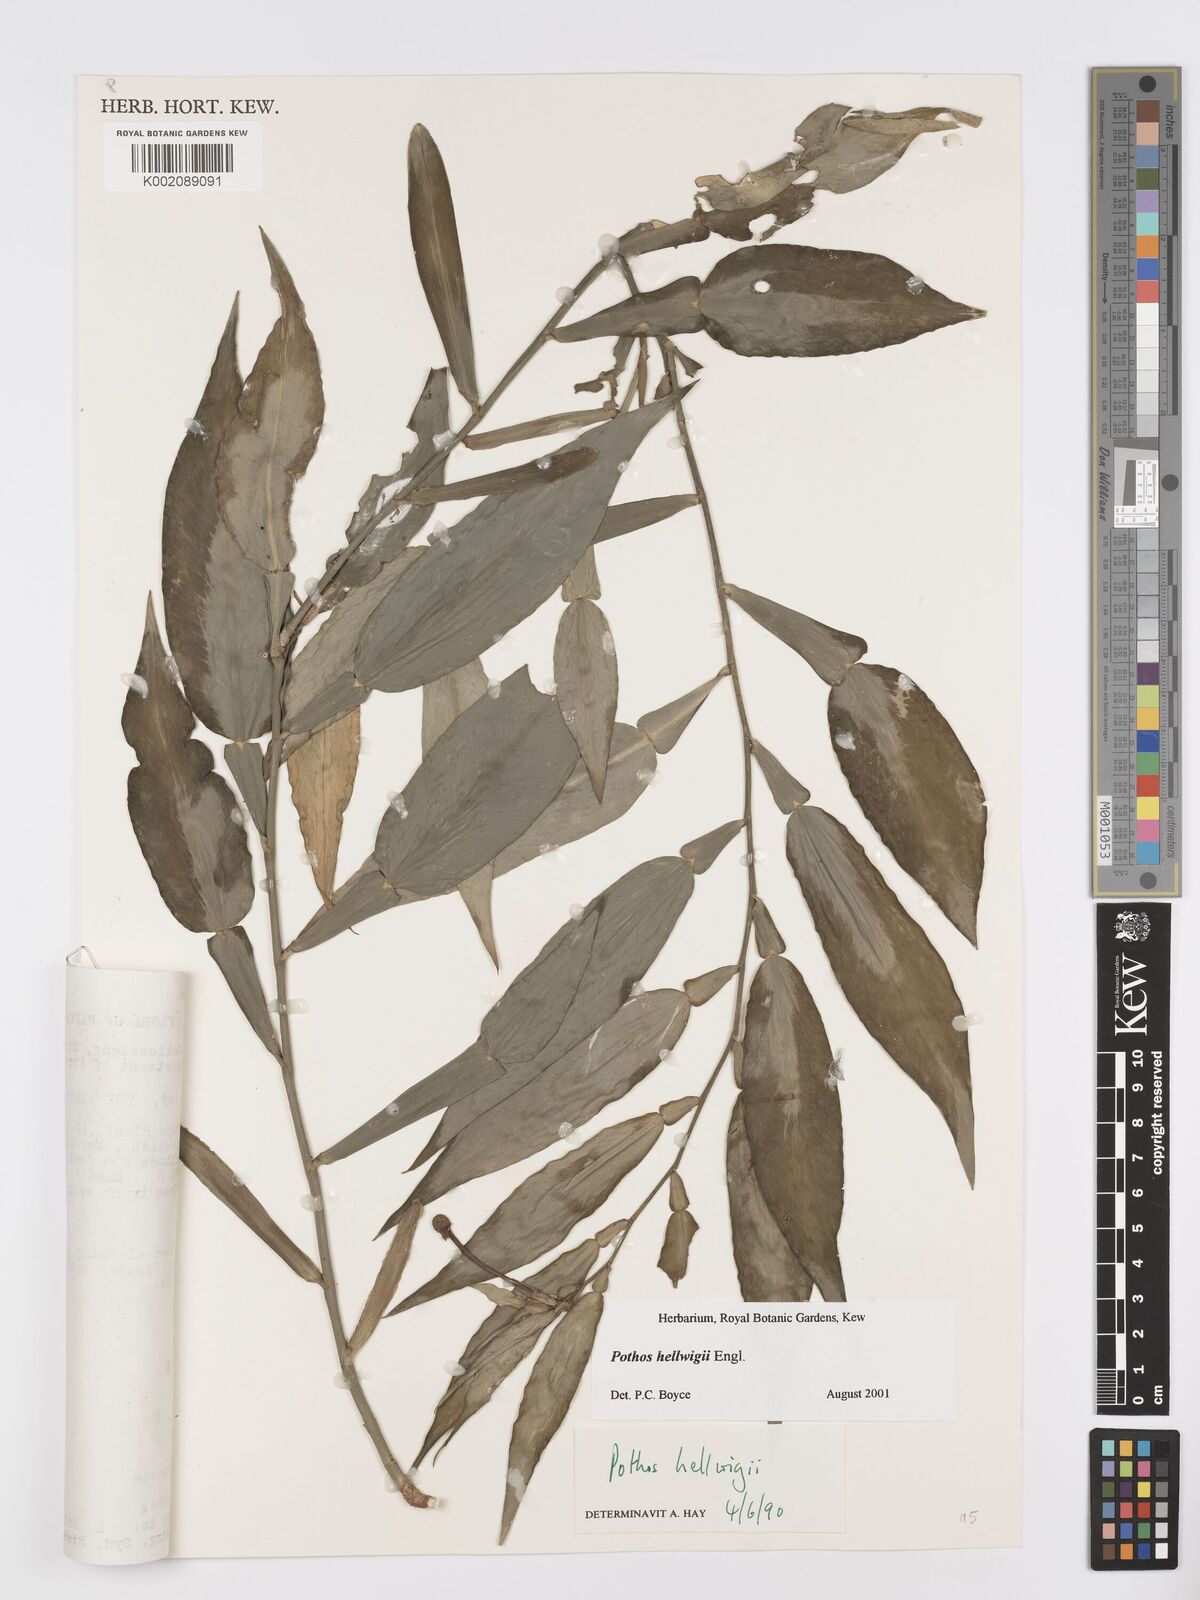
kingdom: Plantae
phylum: Tracheophyta
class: Liliopsida
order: Alismatales
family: Araceae
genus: Pothos
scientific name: Pothos hellwigii
